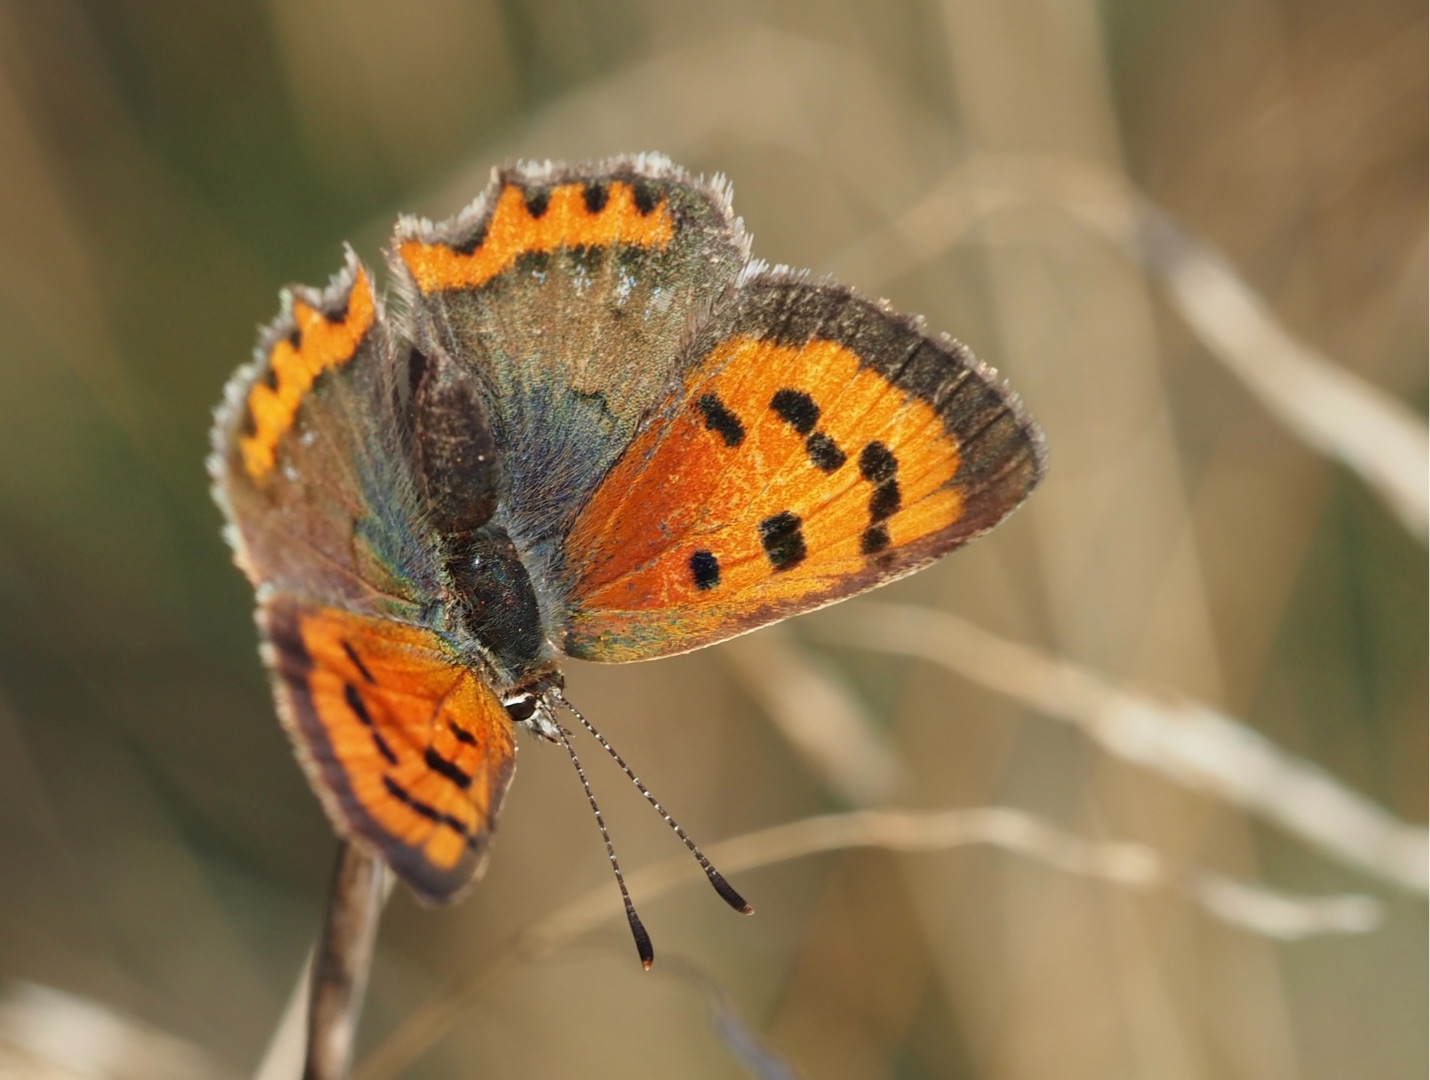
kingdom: Animalia
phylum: Arthropoda
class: Insecta
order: Lepidoptera
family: Lycaenidae
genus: Lycaena
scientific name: Lycaena phlaeas
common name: Lille ildfugl
